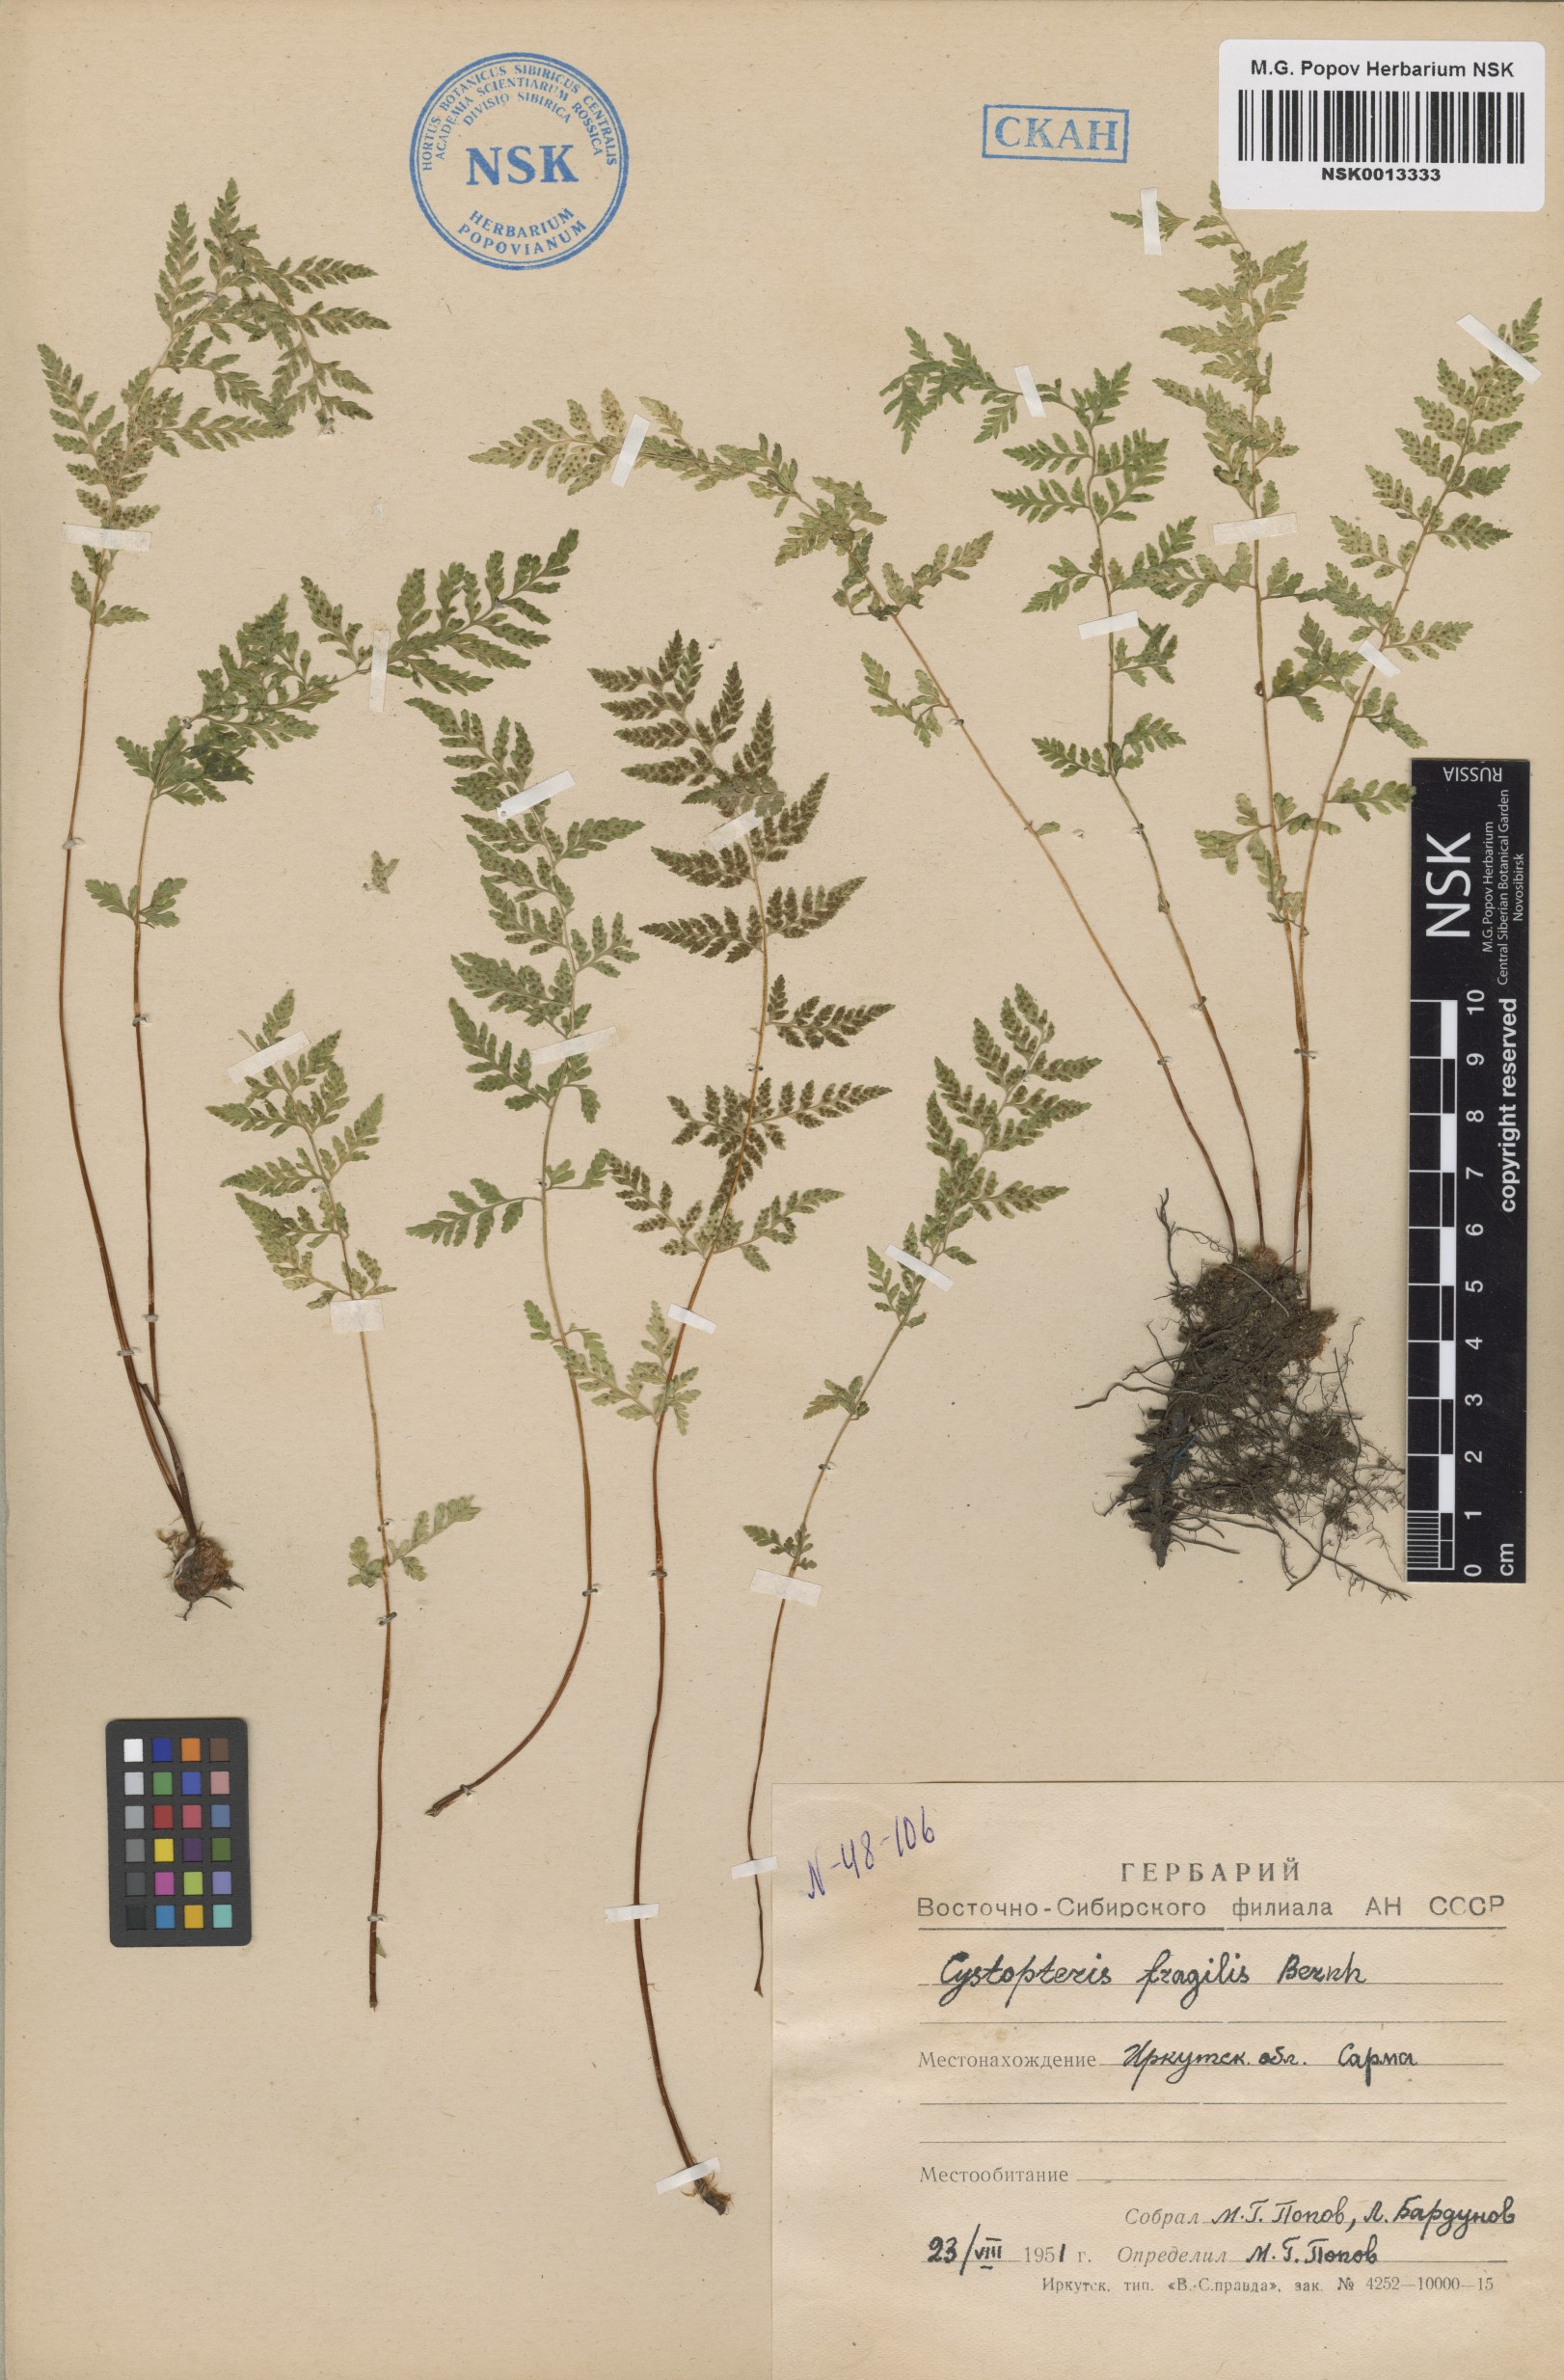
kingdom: Plantae
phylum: Tracheophyta
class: Polypodiopsida
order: Polypodiales
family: Cystopteridaceae
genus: Cystopteris
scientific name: Cystopteris fragilis
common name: Brittle bladder fern
